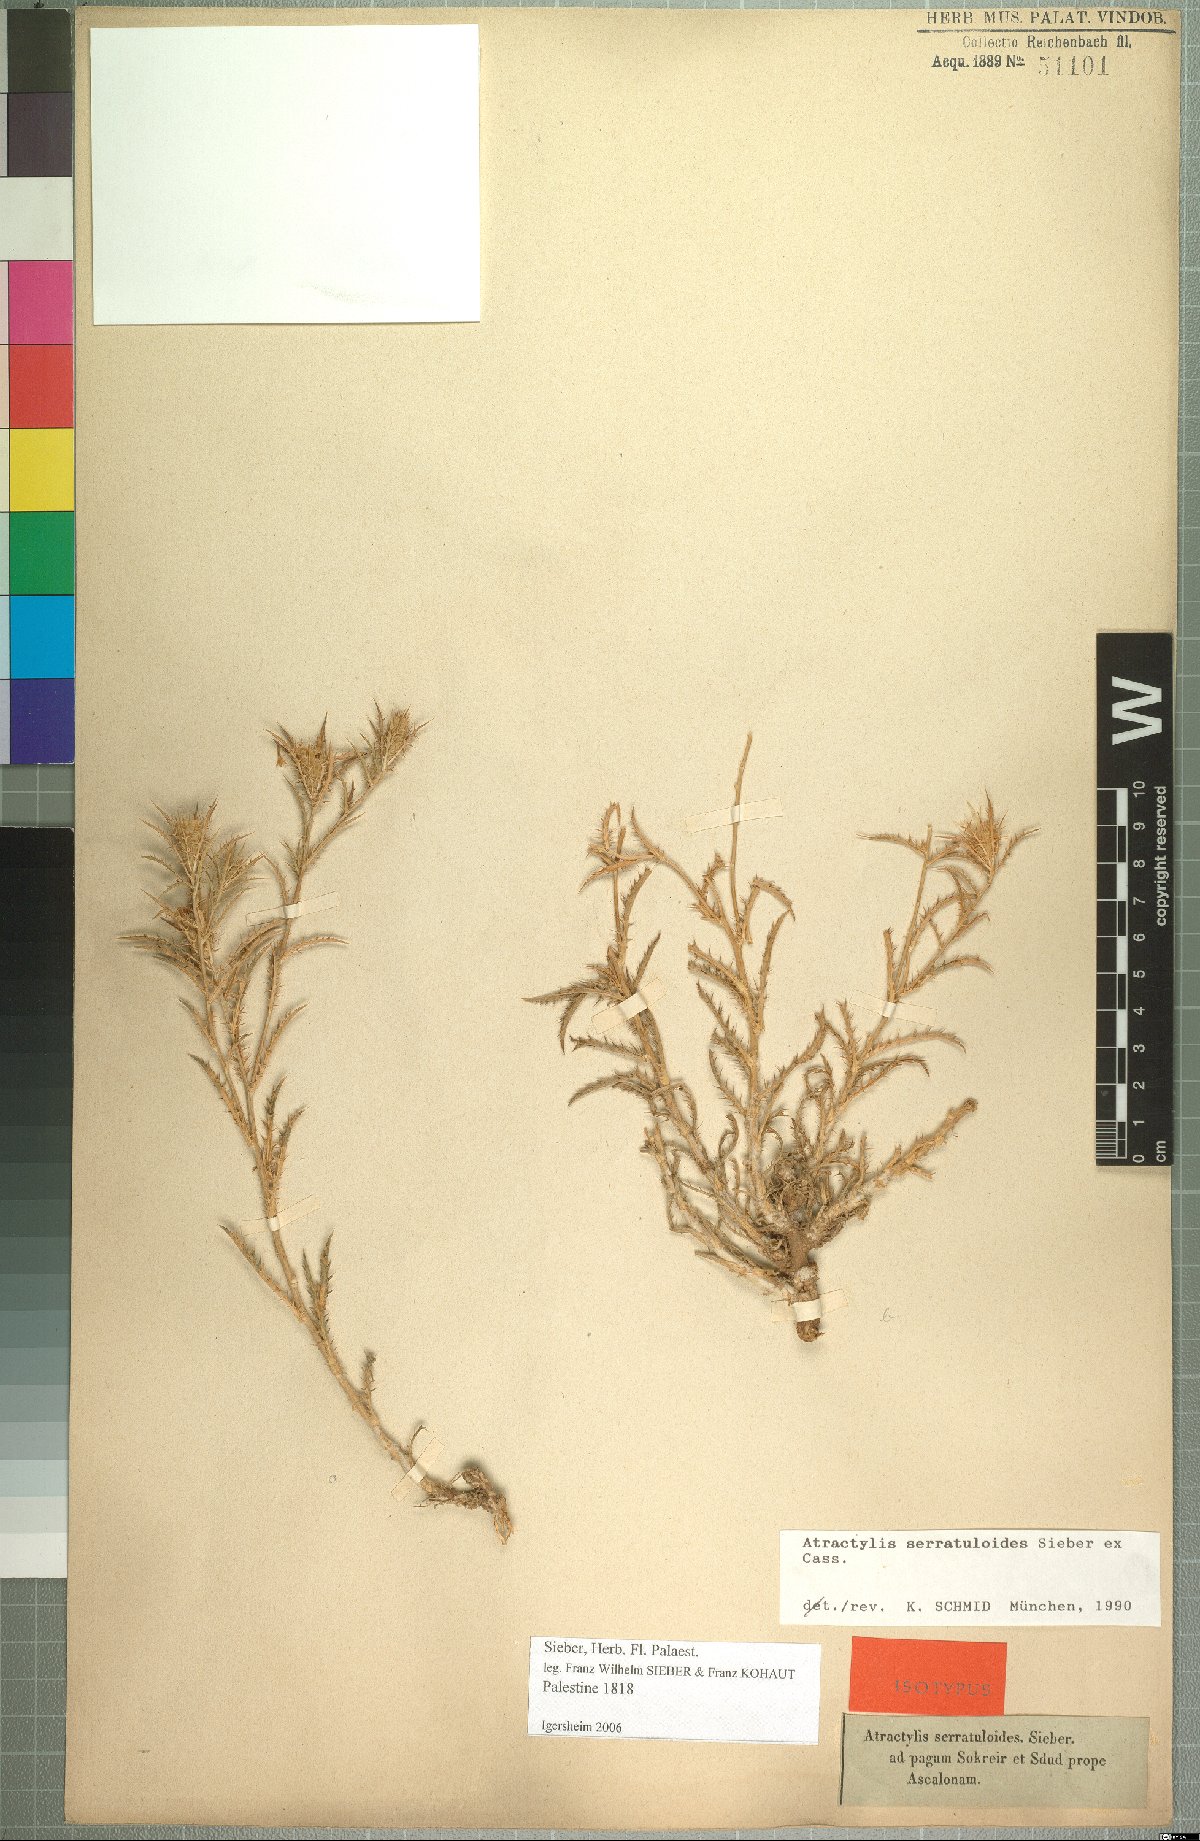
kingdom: Plantae
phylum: Tracheophyta
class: Magnoliopsida
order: Asterales
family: Asteraceae
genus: Atractylis
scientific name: Atractylis serratuloides
